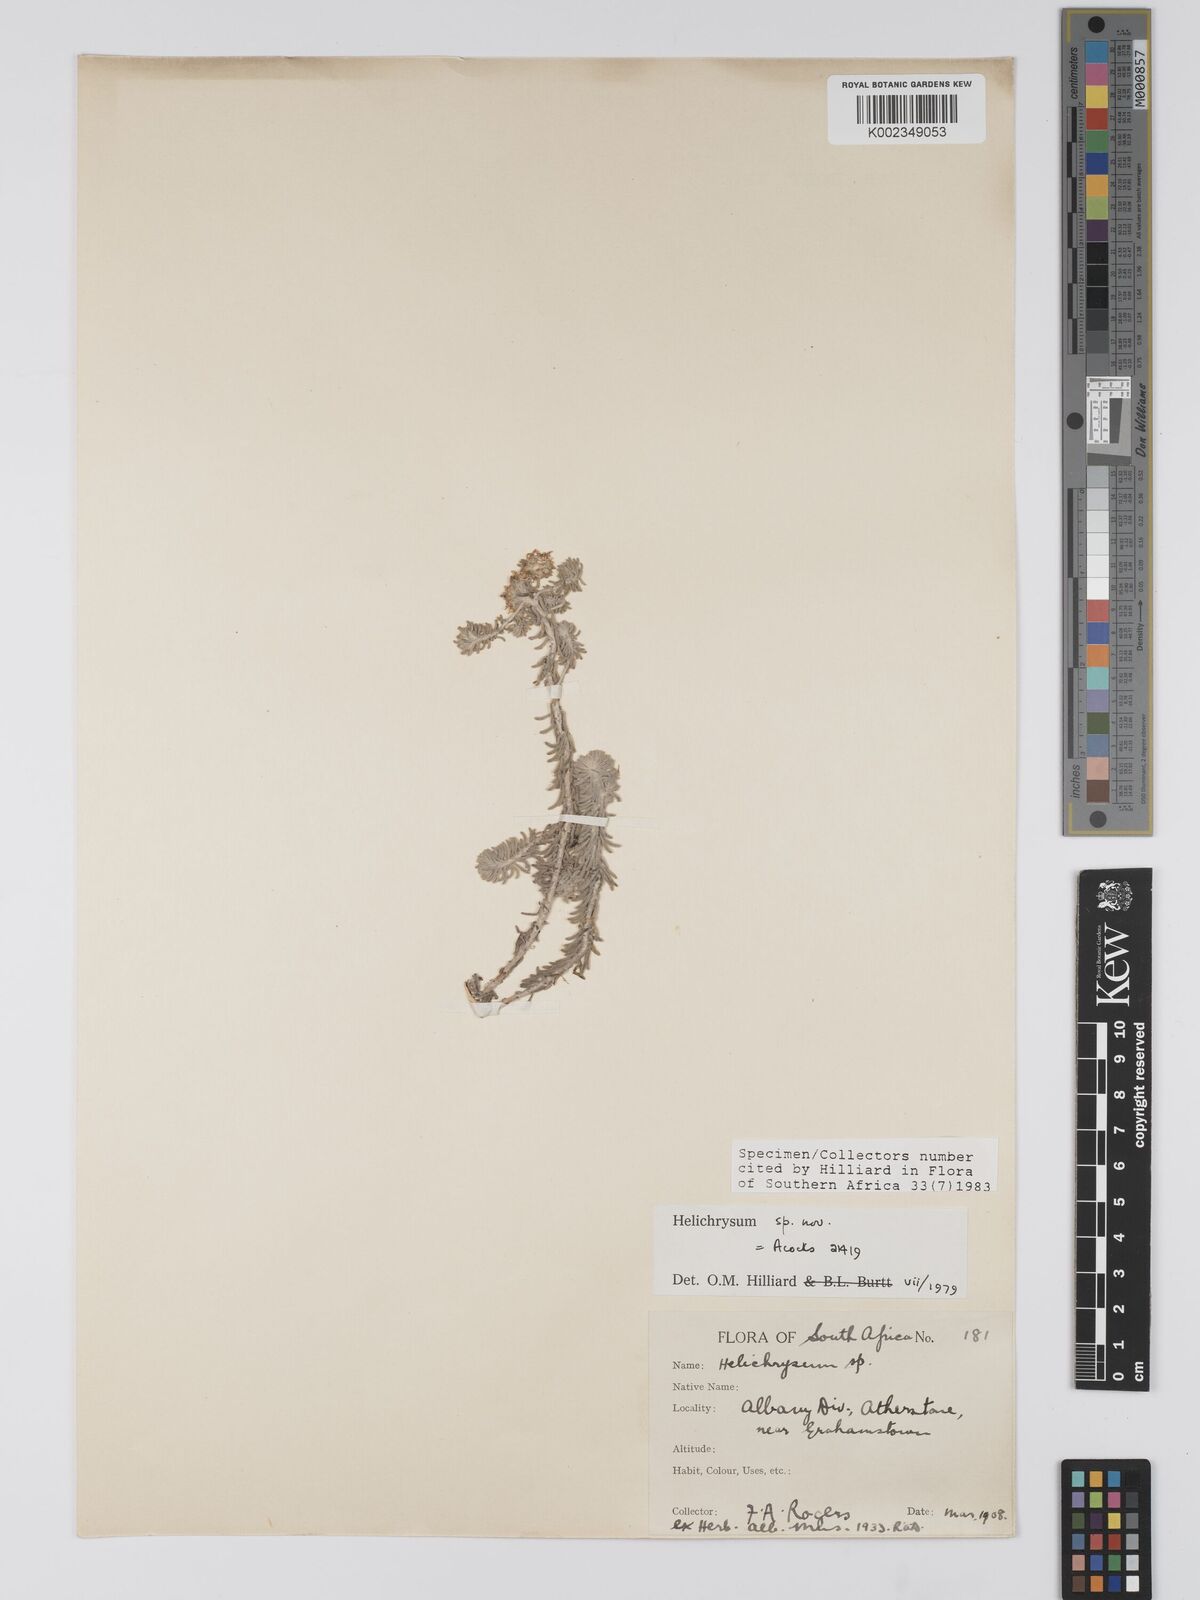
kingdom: Plantae
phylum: Tracheophyta
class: Magnoliopsida
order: Asterales
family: Asteraceae
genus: Helichrysum
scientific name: Helichrysum refractum
